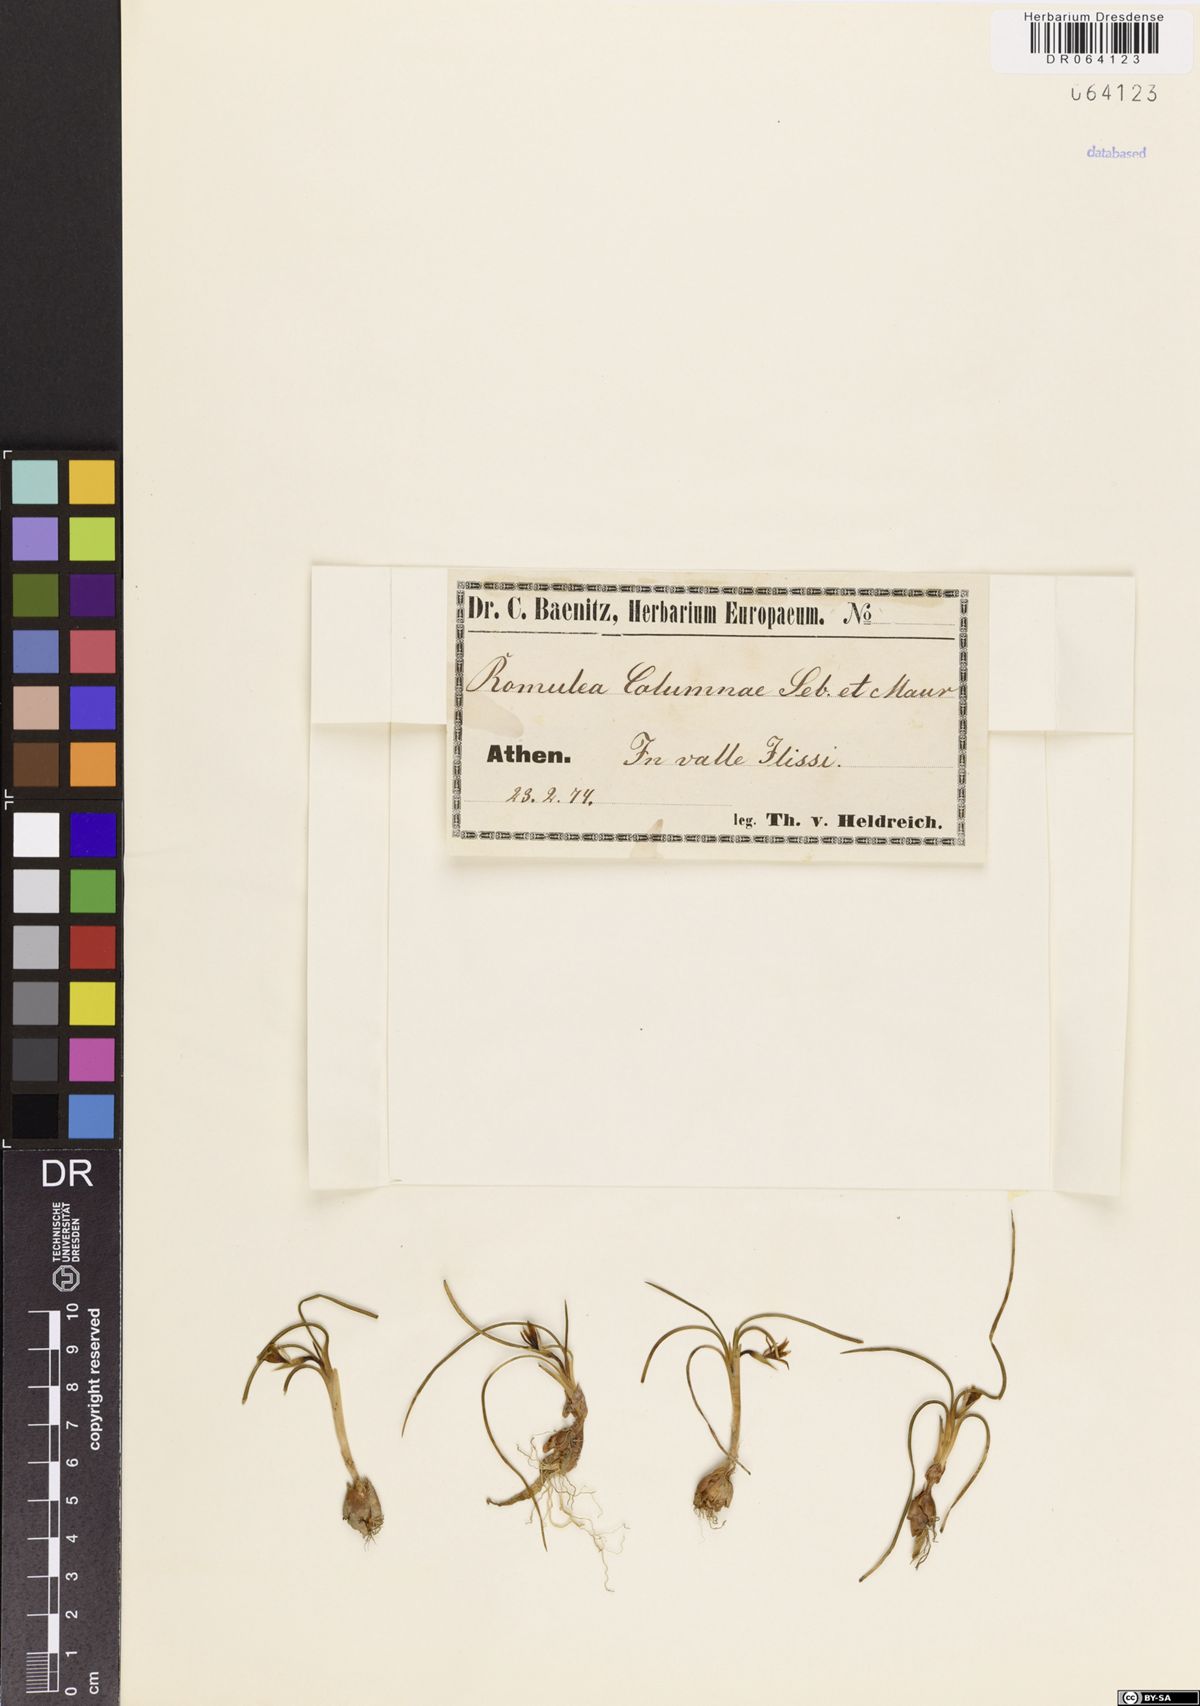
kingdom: Plantae
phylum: Tracheophyta
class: Liliopsida
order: Asparagales
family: Iridaceae
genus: Romulea
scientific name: Romulea columnae
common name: Sand-crocus
